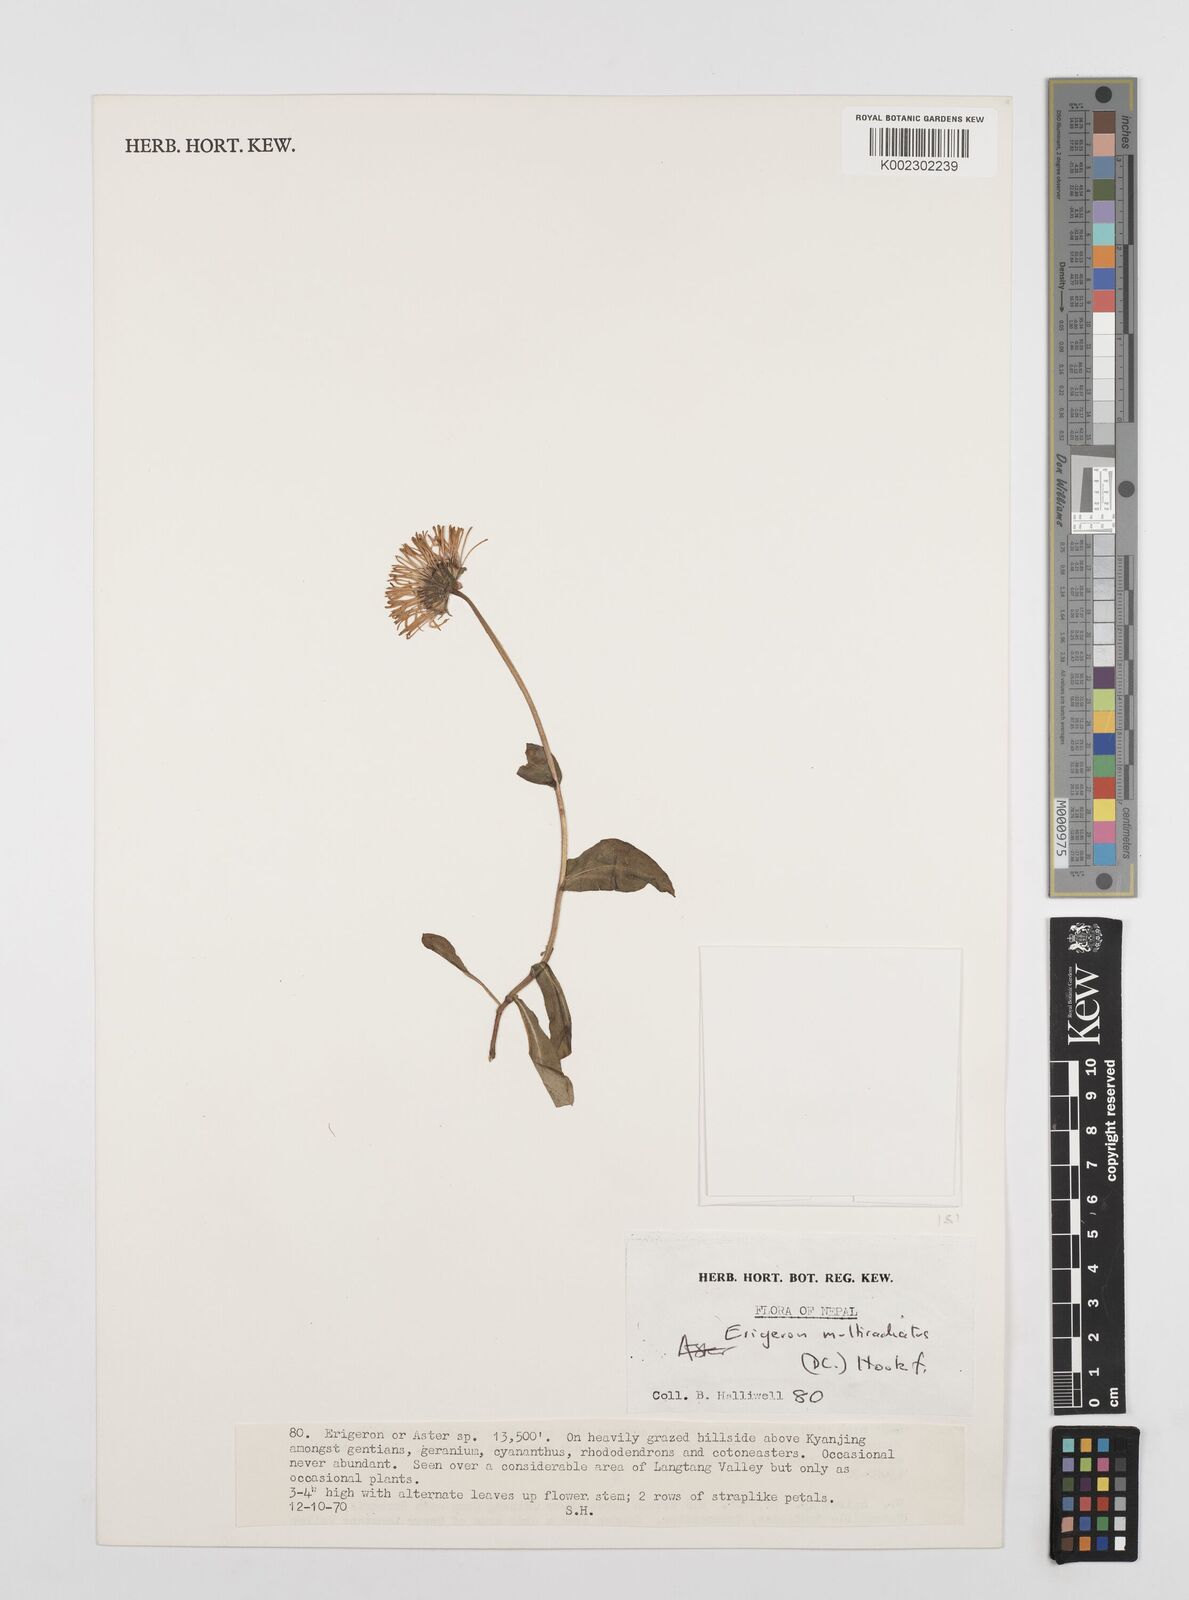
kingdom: Plantae
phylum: Tracheophyta
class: Magnoliopsida
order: Asterales
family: Asteraceae
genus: Erigeron
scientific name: Erigeron multiradiatus
